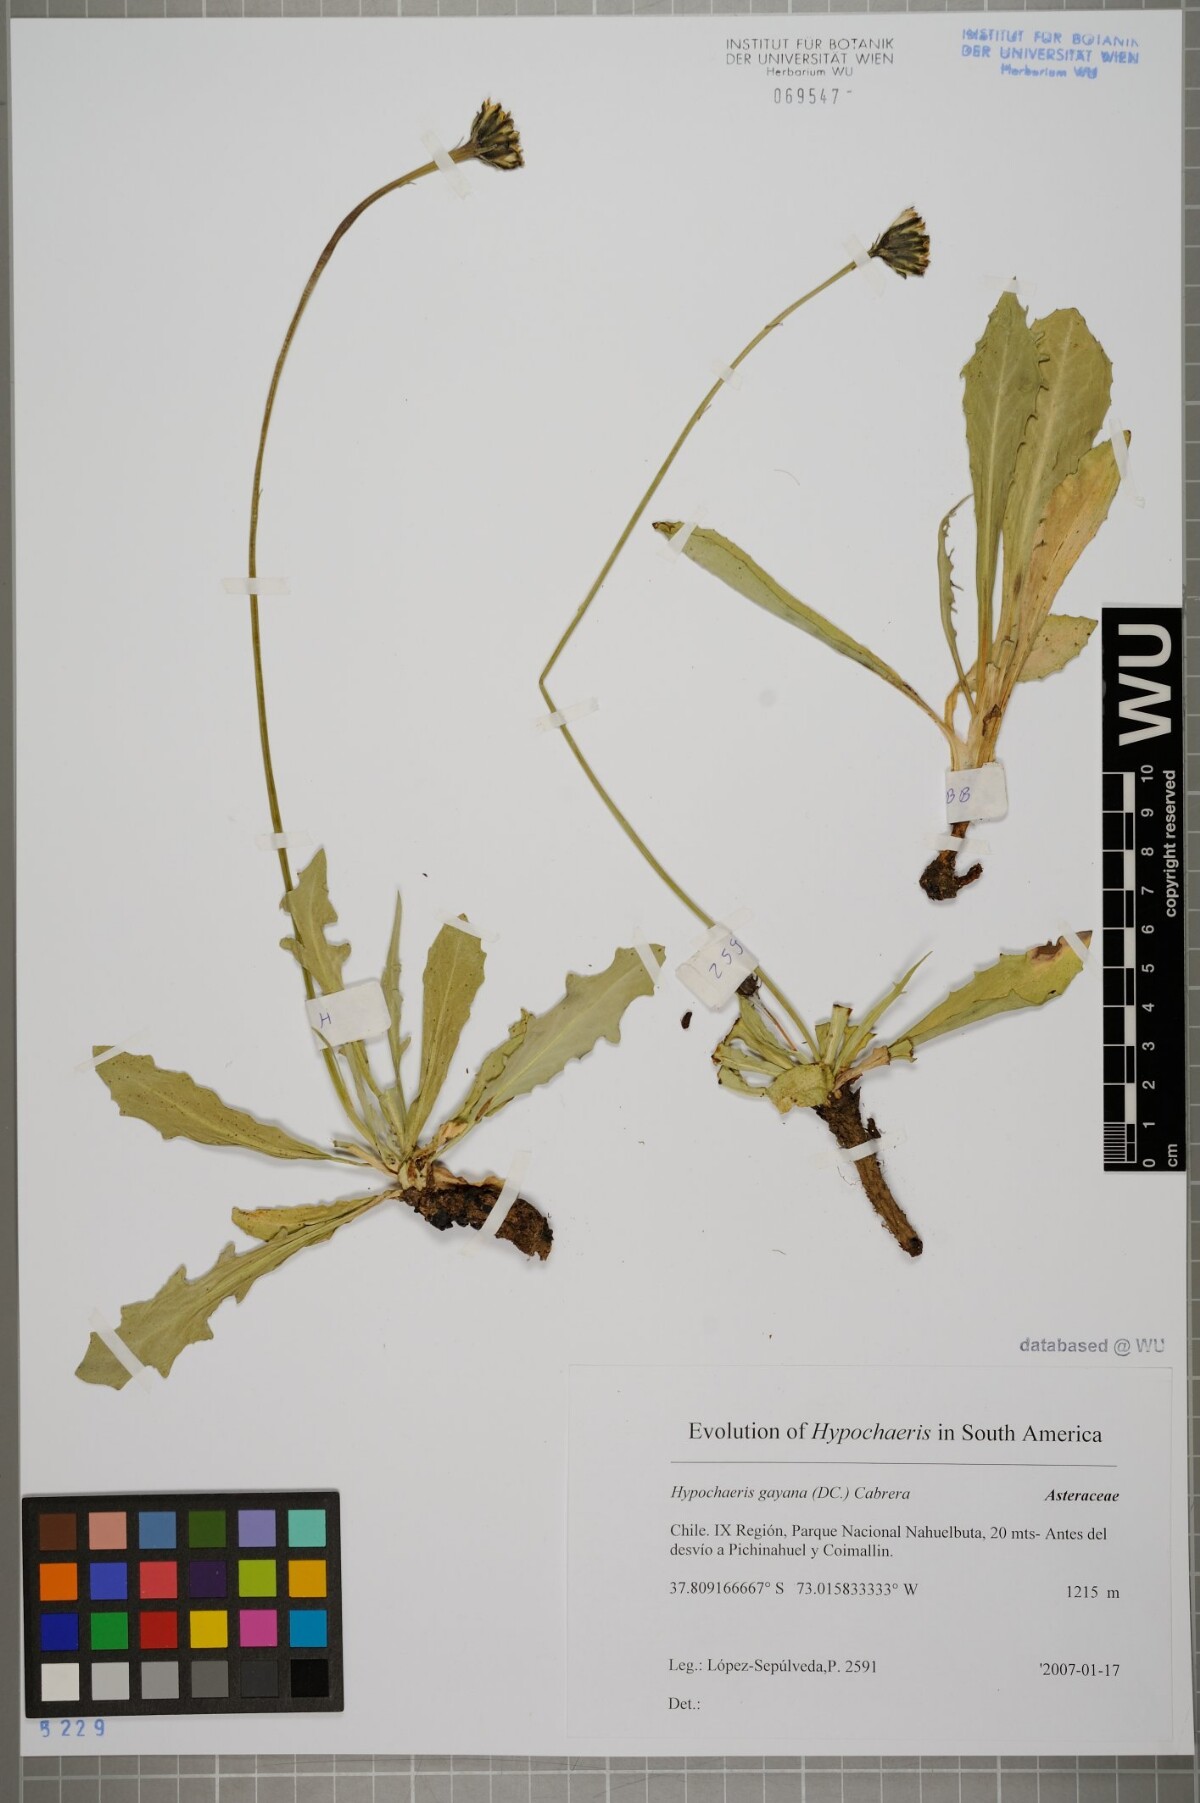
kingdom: Plantae
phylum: Tracheophyta
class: Magnoliopsida
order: Asterales
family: Asteraceae
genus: Hypochaeris
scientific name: Hypochaeris melanolepis
